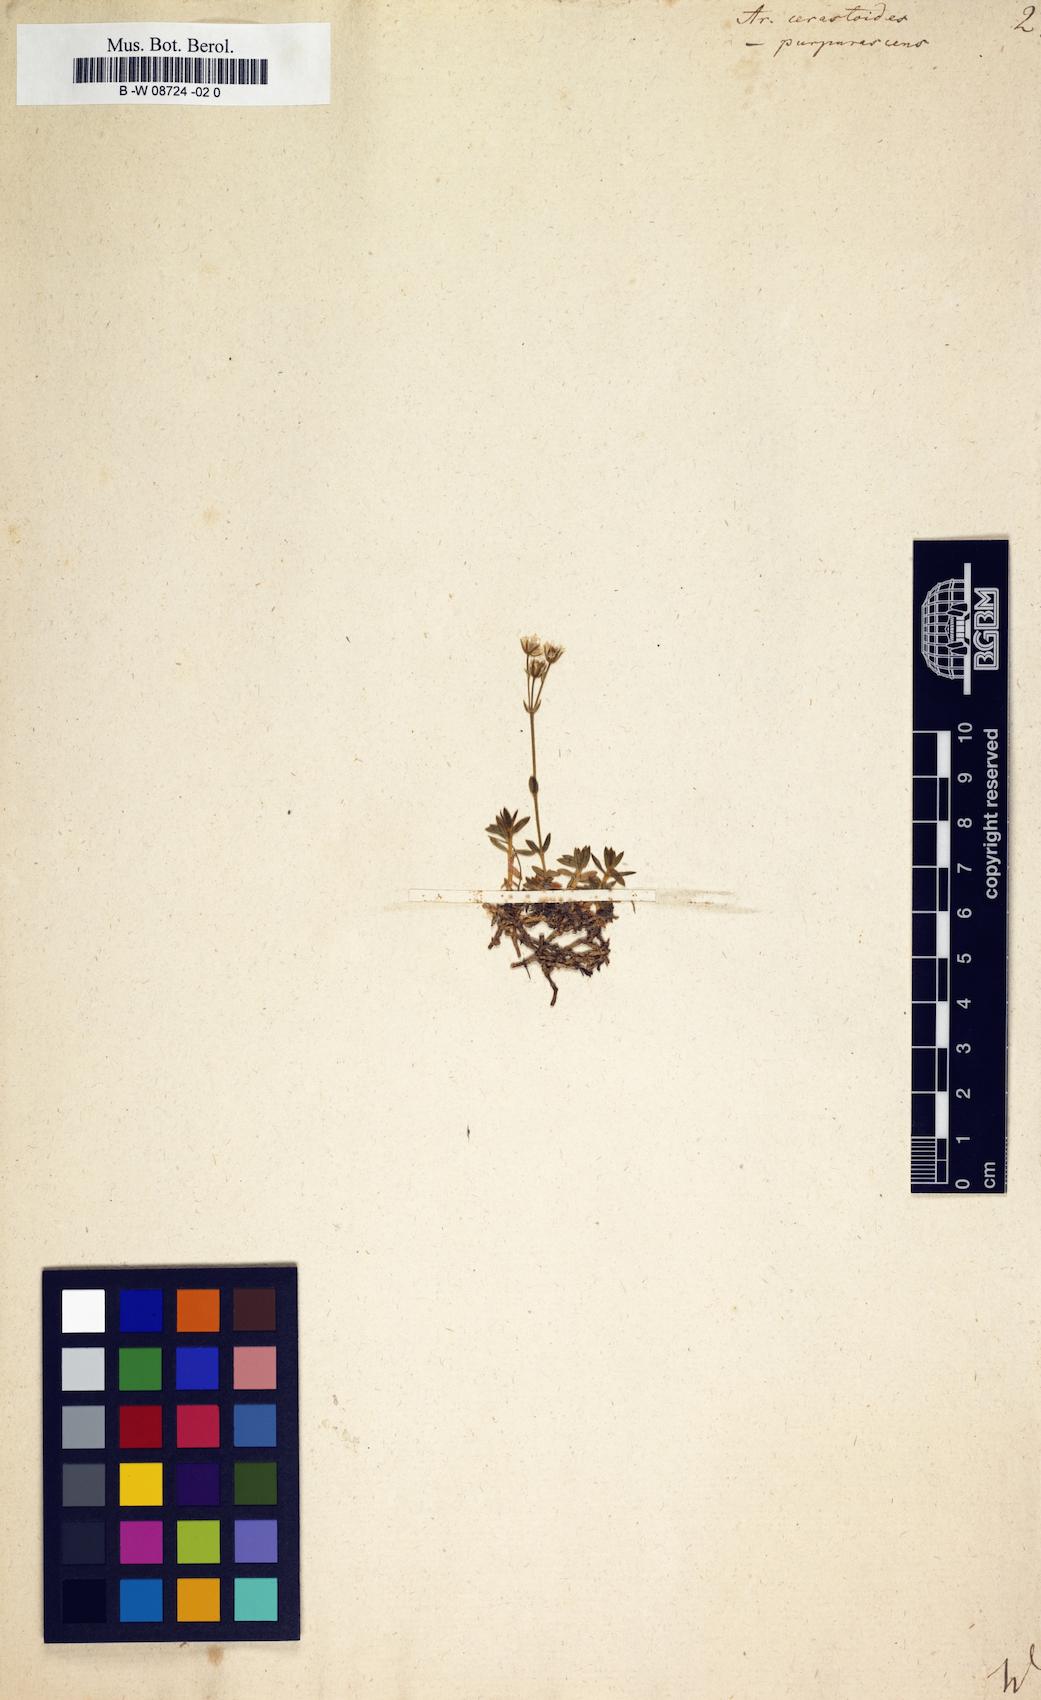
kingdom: Plantae
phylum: Tracheophyta
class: Magnoliopsida
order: Caryophyllales
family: Caryophyllaceae
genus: Arenaria
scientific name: Arenaria cerastioides
